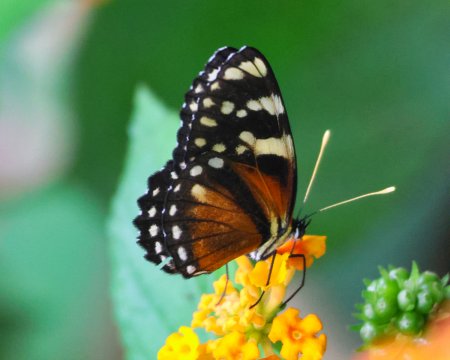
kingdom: Animalia
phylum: Arthropoda
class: Insecta
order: Lepidoptera
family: Nymphalidae
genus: Eresia
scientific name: Eresia ithomioides
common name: Variable Crescent
